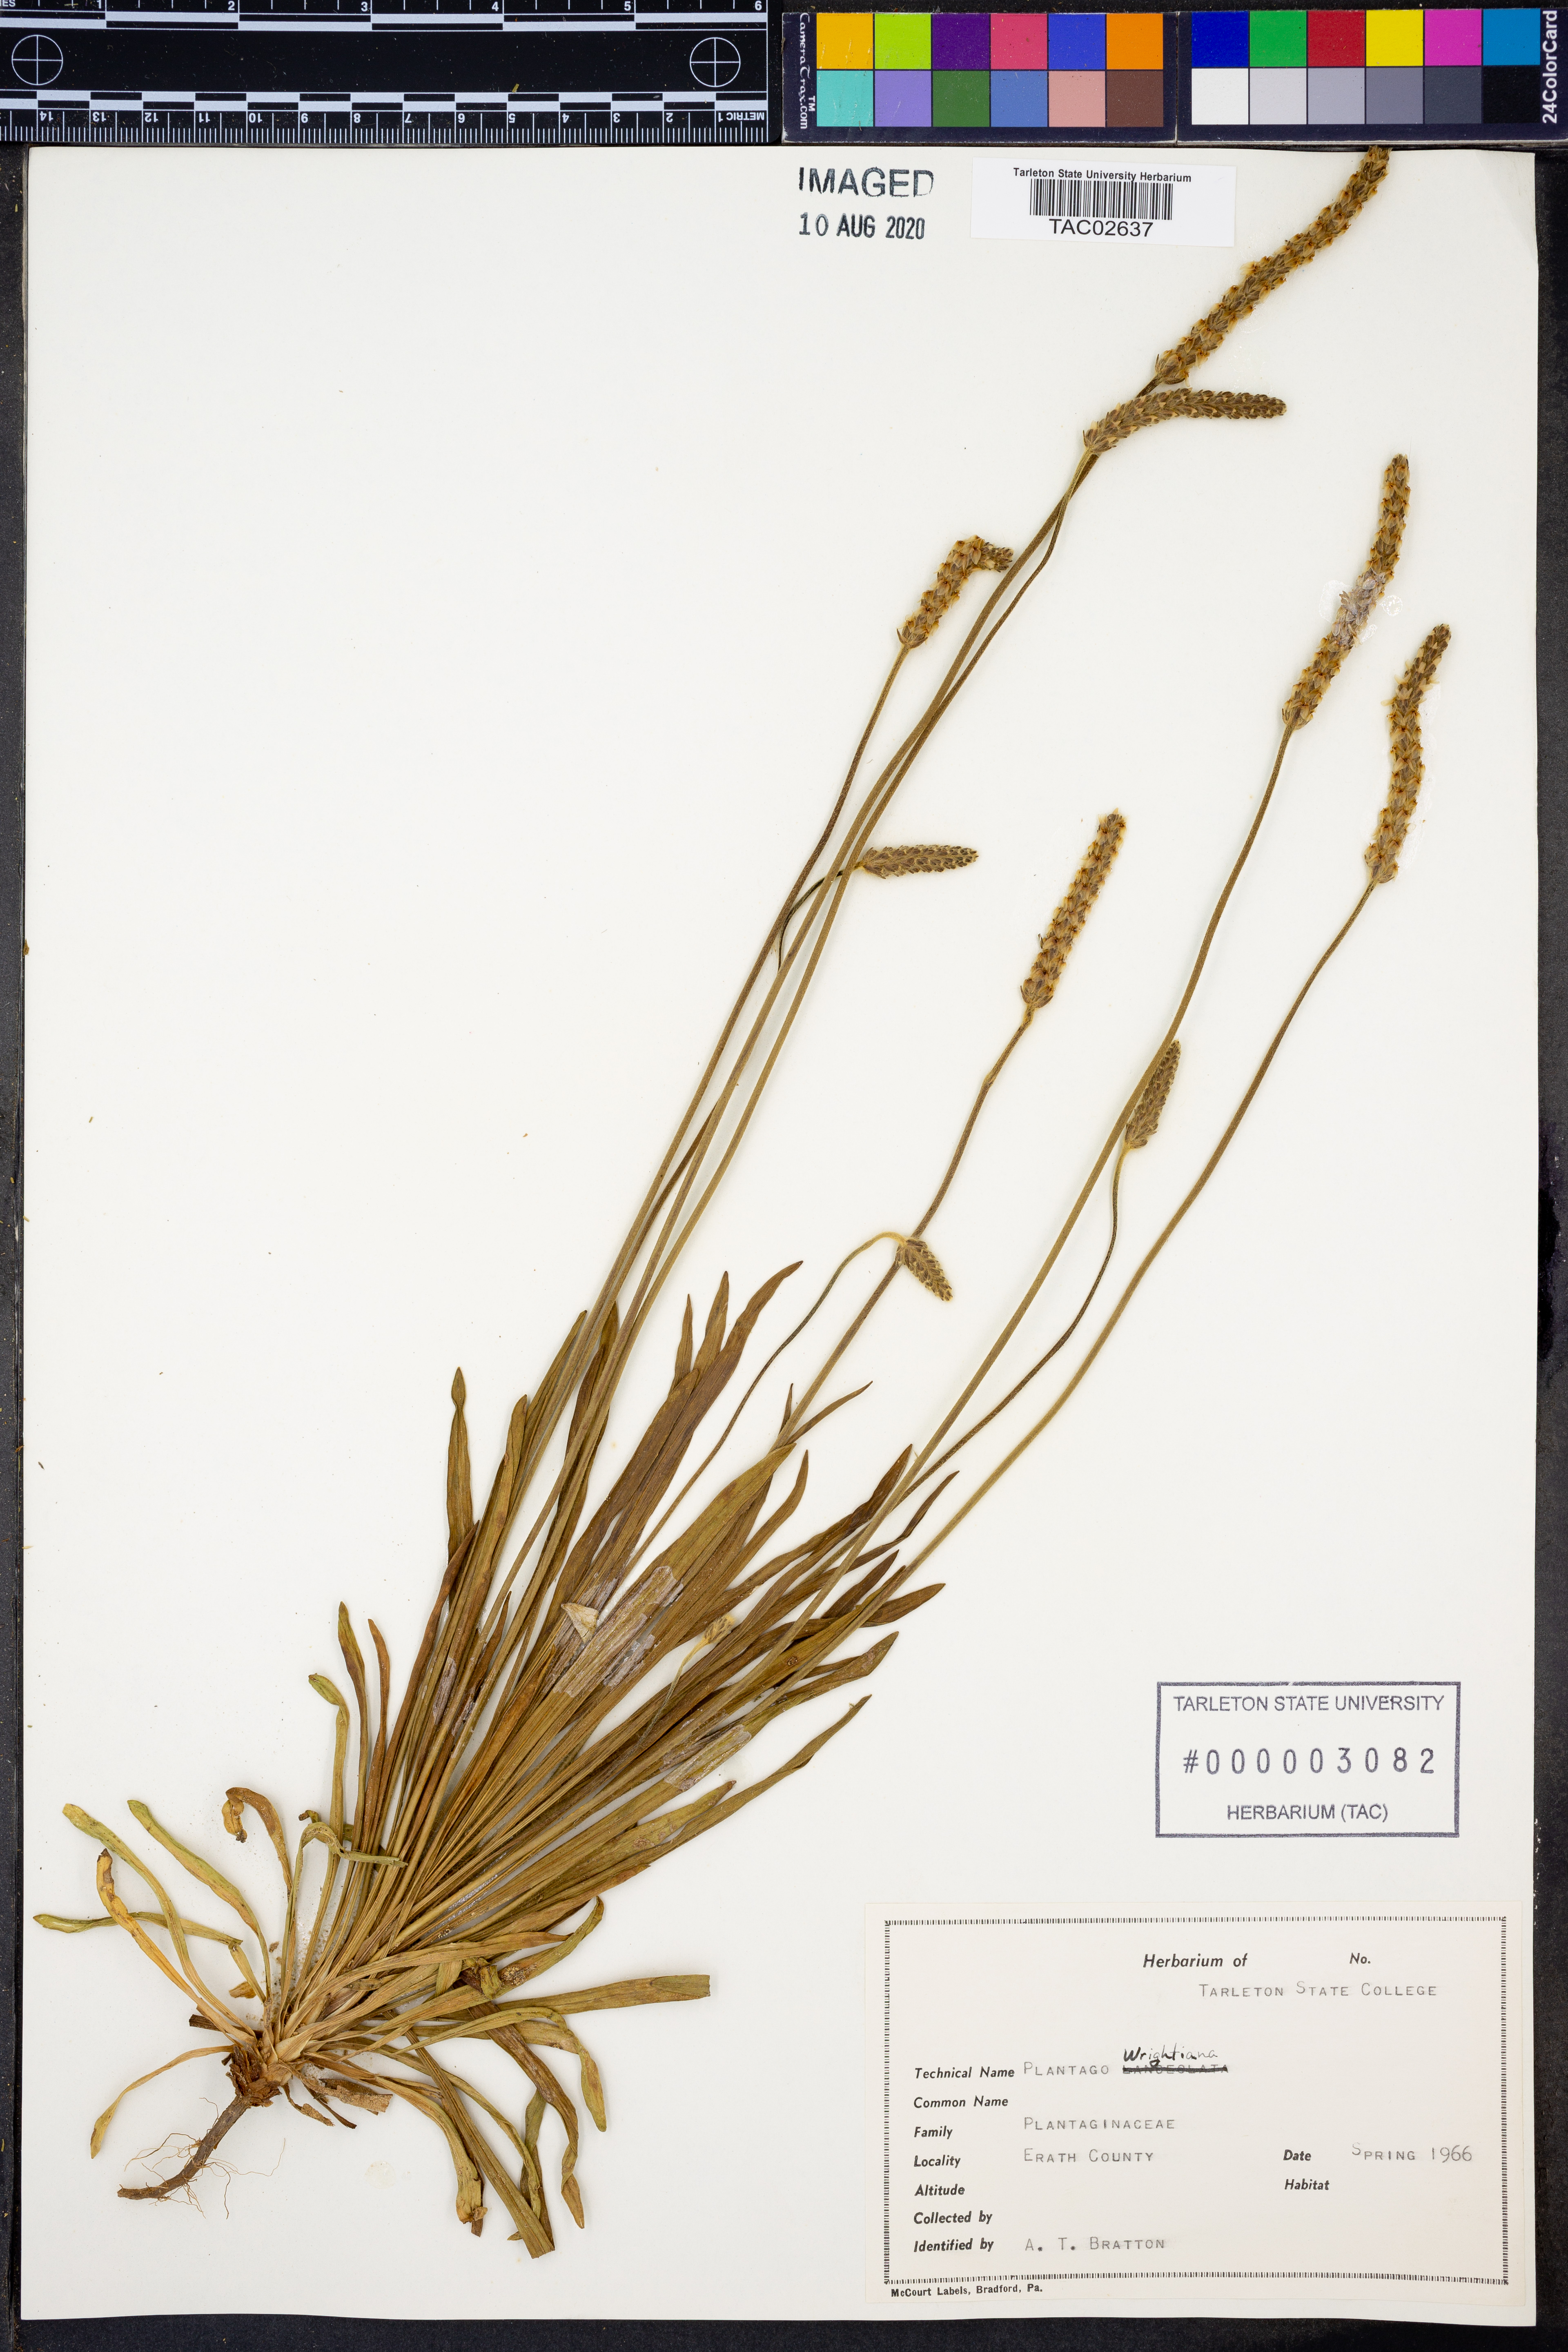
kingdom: Plantae
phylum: Tracheophyta
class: Magnoliopsida
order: Lamiales
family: Plantaginaceae
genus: Plantago
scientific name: Plantago wrightiana
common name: Wright's plantain
